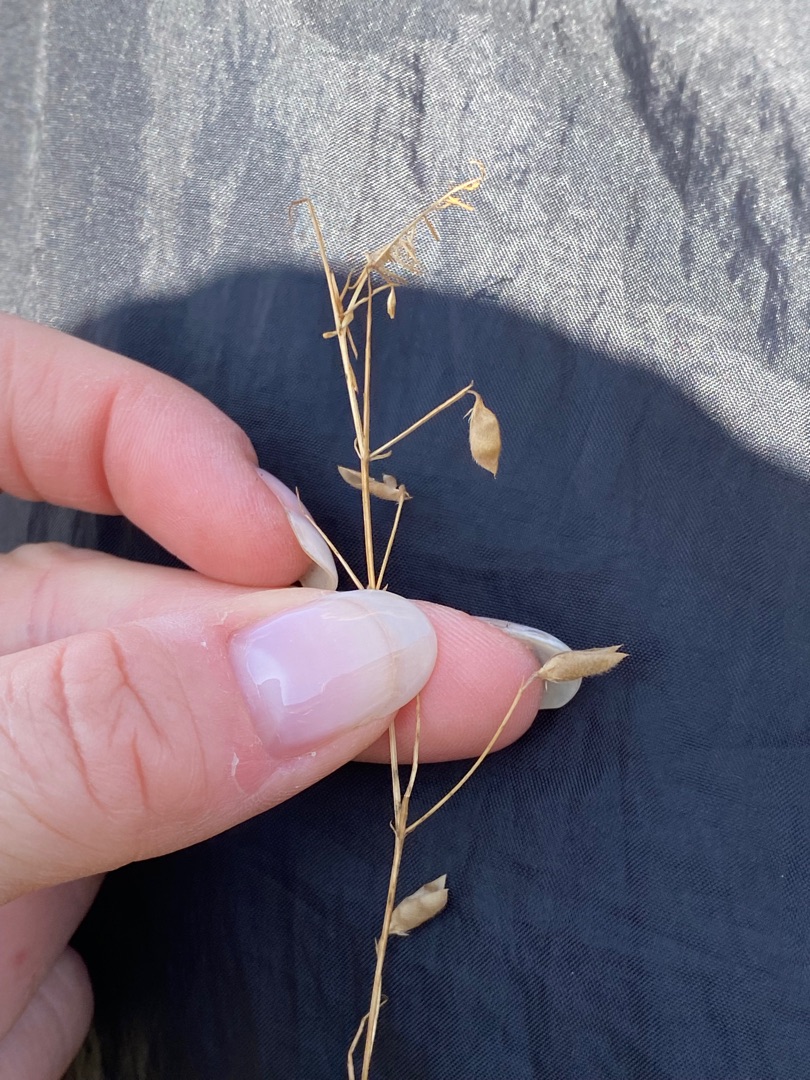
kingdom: Plantae
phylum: Tracheophyta
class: Magnoliopsida
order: Fabales
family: Fabaceae
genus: Vicia
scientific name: Vicia hirsuta
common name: Tofrøet vikke
